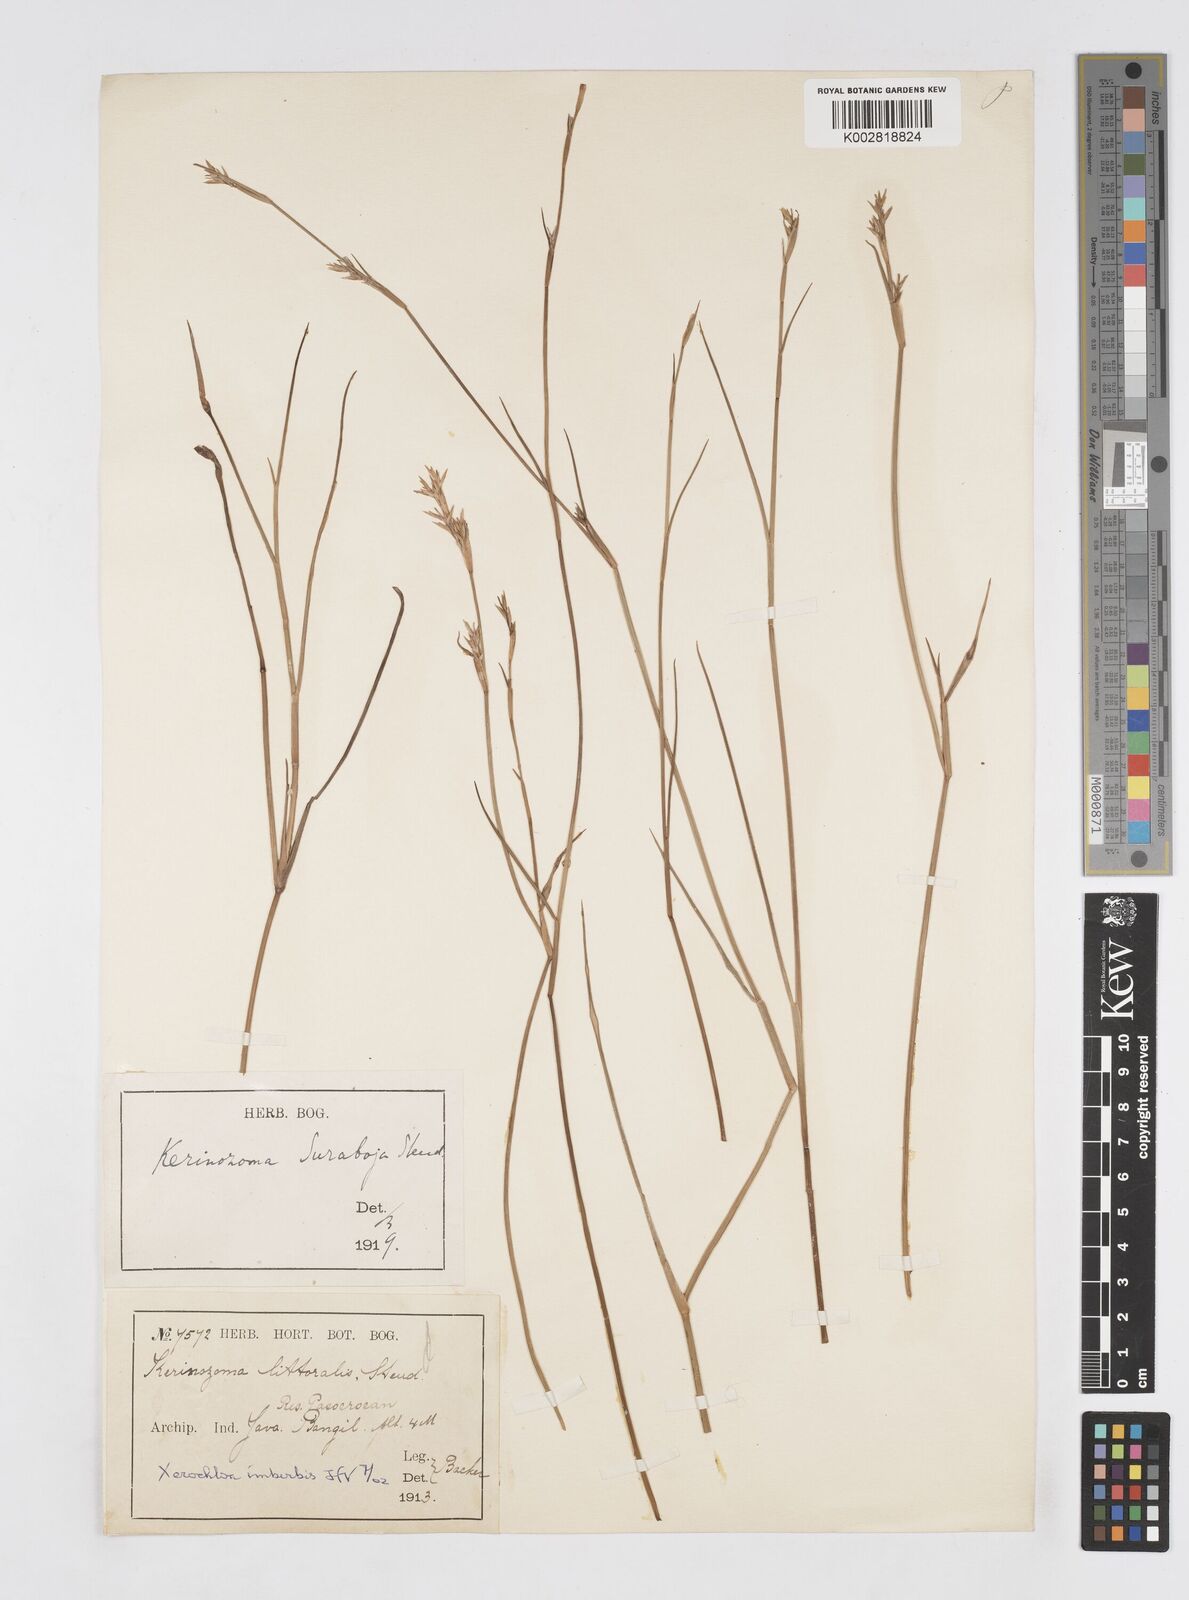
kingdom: Plantae
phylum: Tracheophyta
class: Liliopsida
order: Poales
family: Poaceae
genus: Xerochloa
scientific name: Xerochloa imberbis
